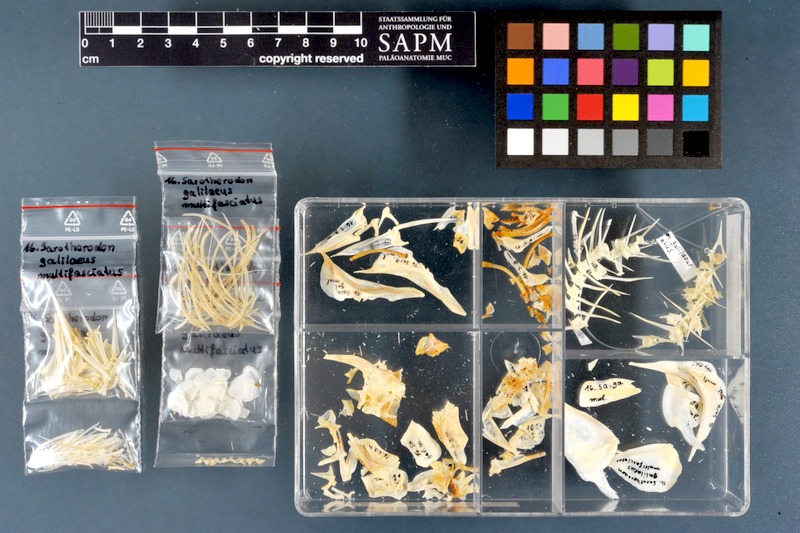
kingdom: Animalia
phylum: Chordata
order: Perciformes
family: Cichlidae
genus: Sarotherodon
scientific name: Sarotherodon galilaeus
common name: Mango tilapia
